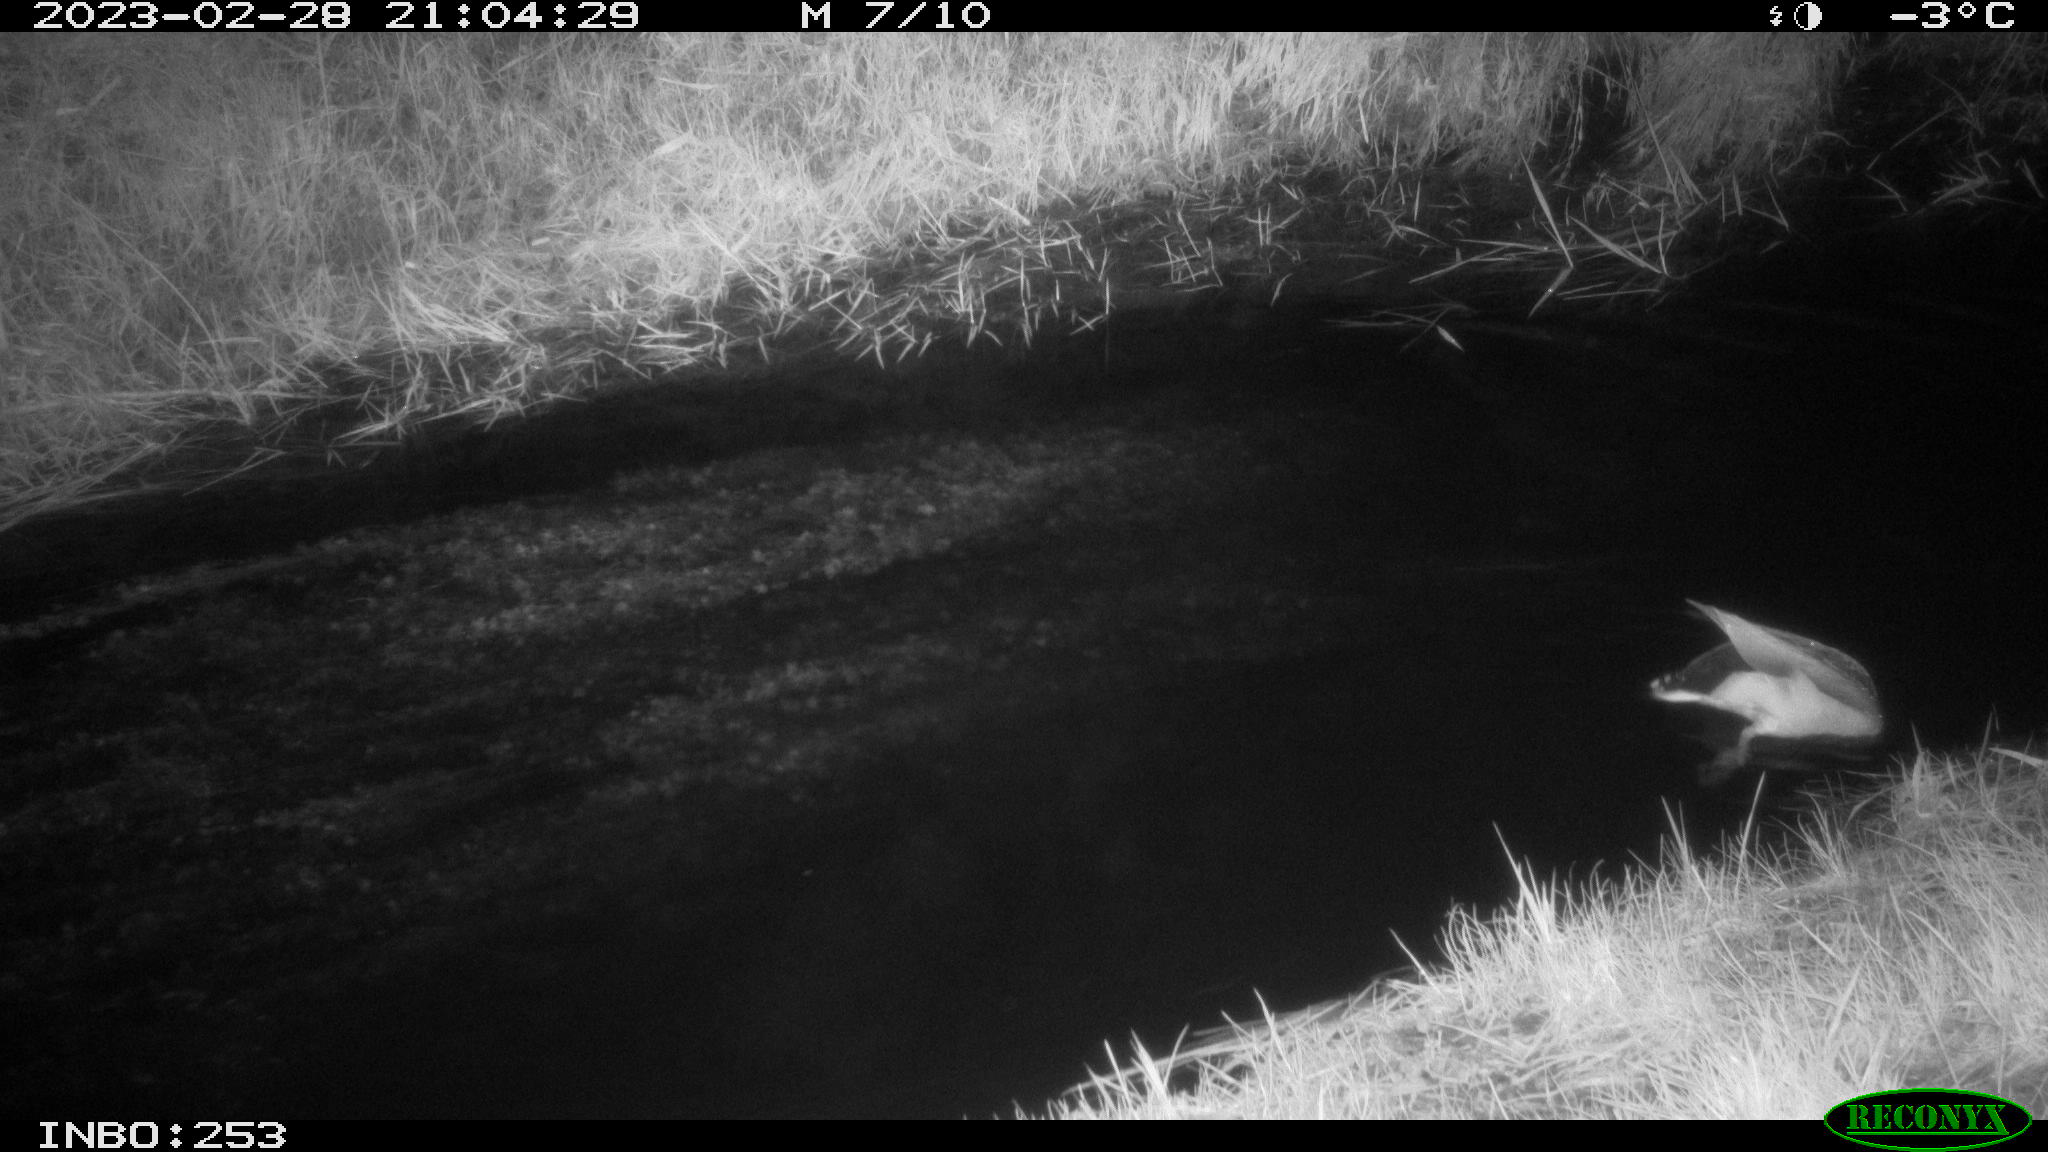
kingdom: Animalia
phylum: Chordata
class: Aves
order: Anseriformes
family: Anatidae
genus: Anas
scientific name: Anas
